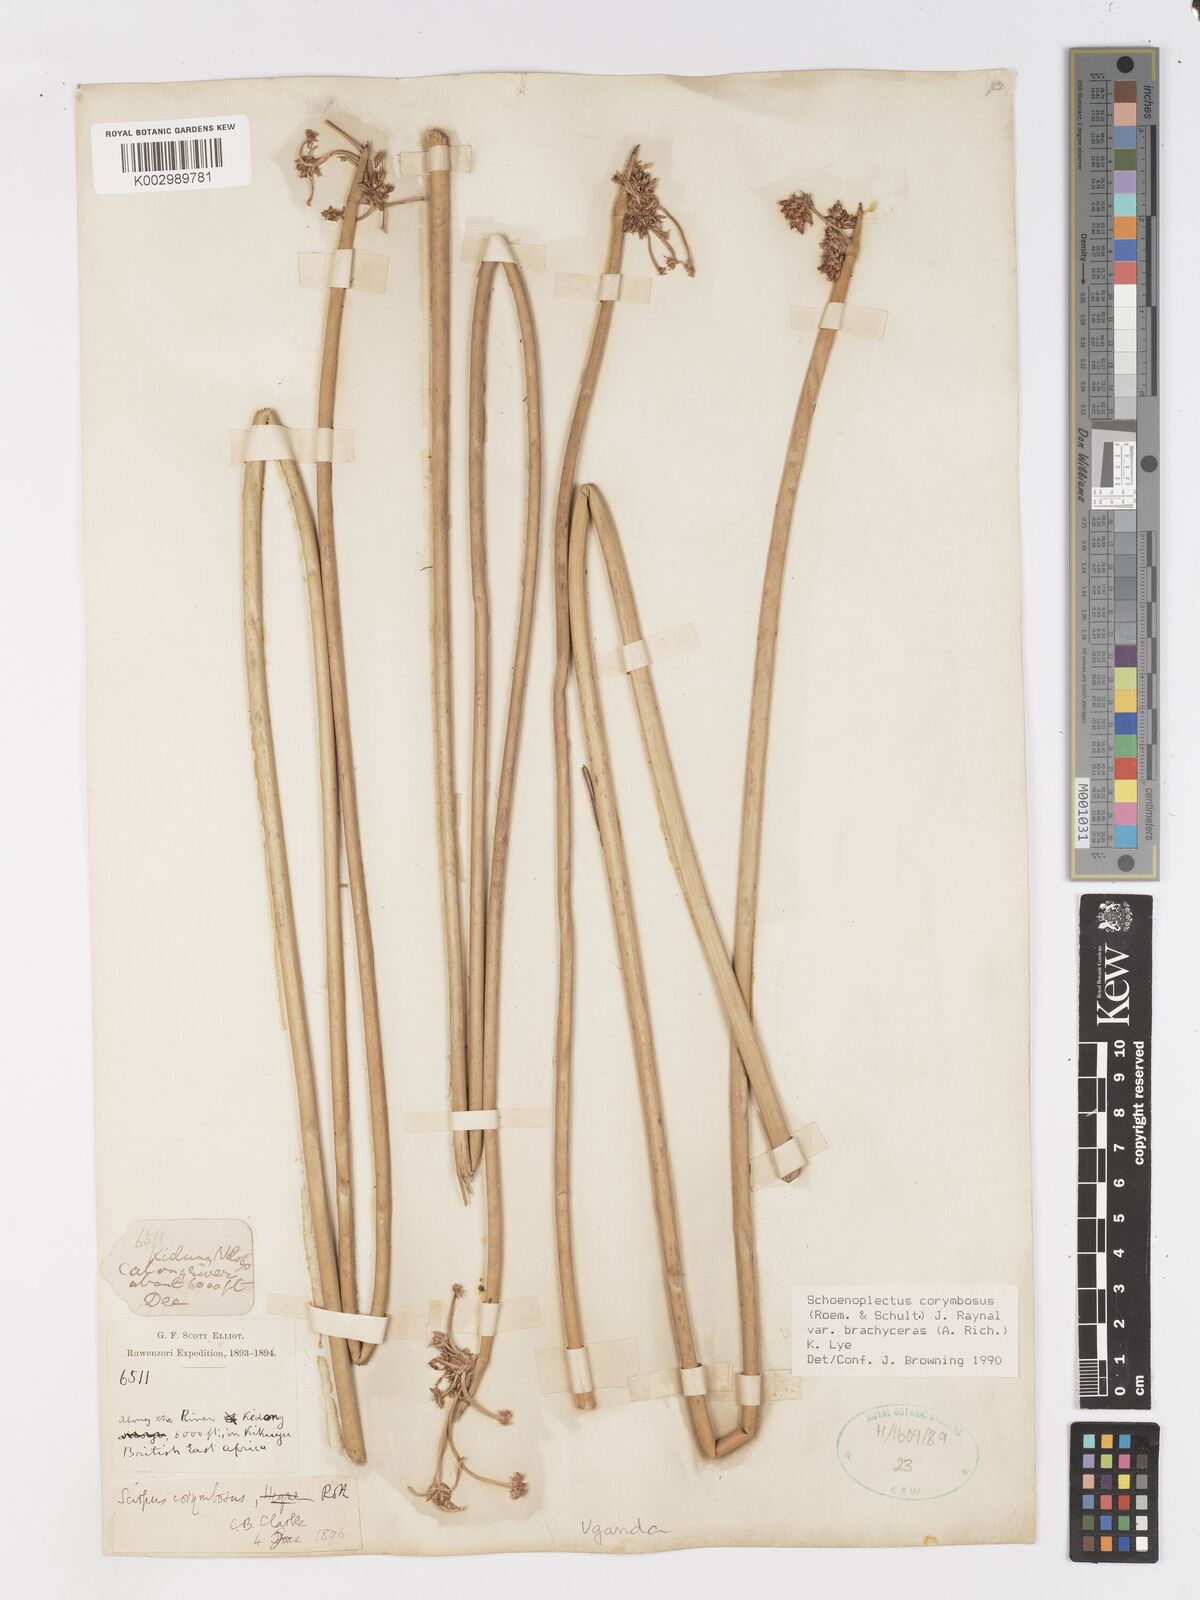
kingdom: Plantae
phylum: Tracheophyta
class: Liliopsida
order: Poales
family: Cyperaceae
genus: Schoenoplectiella
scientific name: Schoenoplectiella brachyceras
